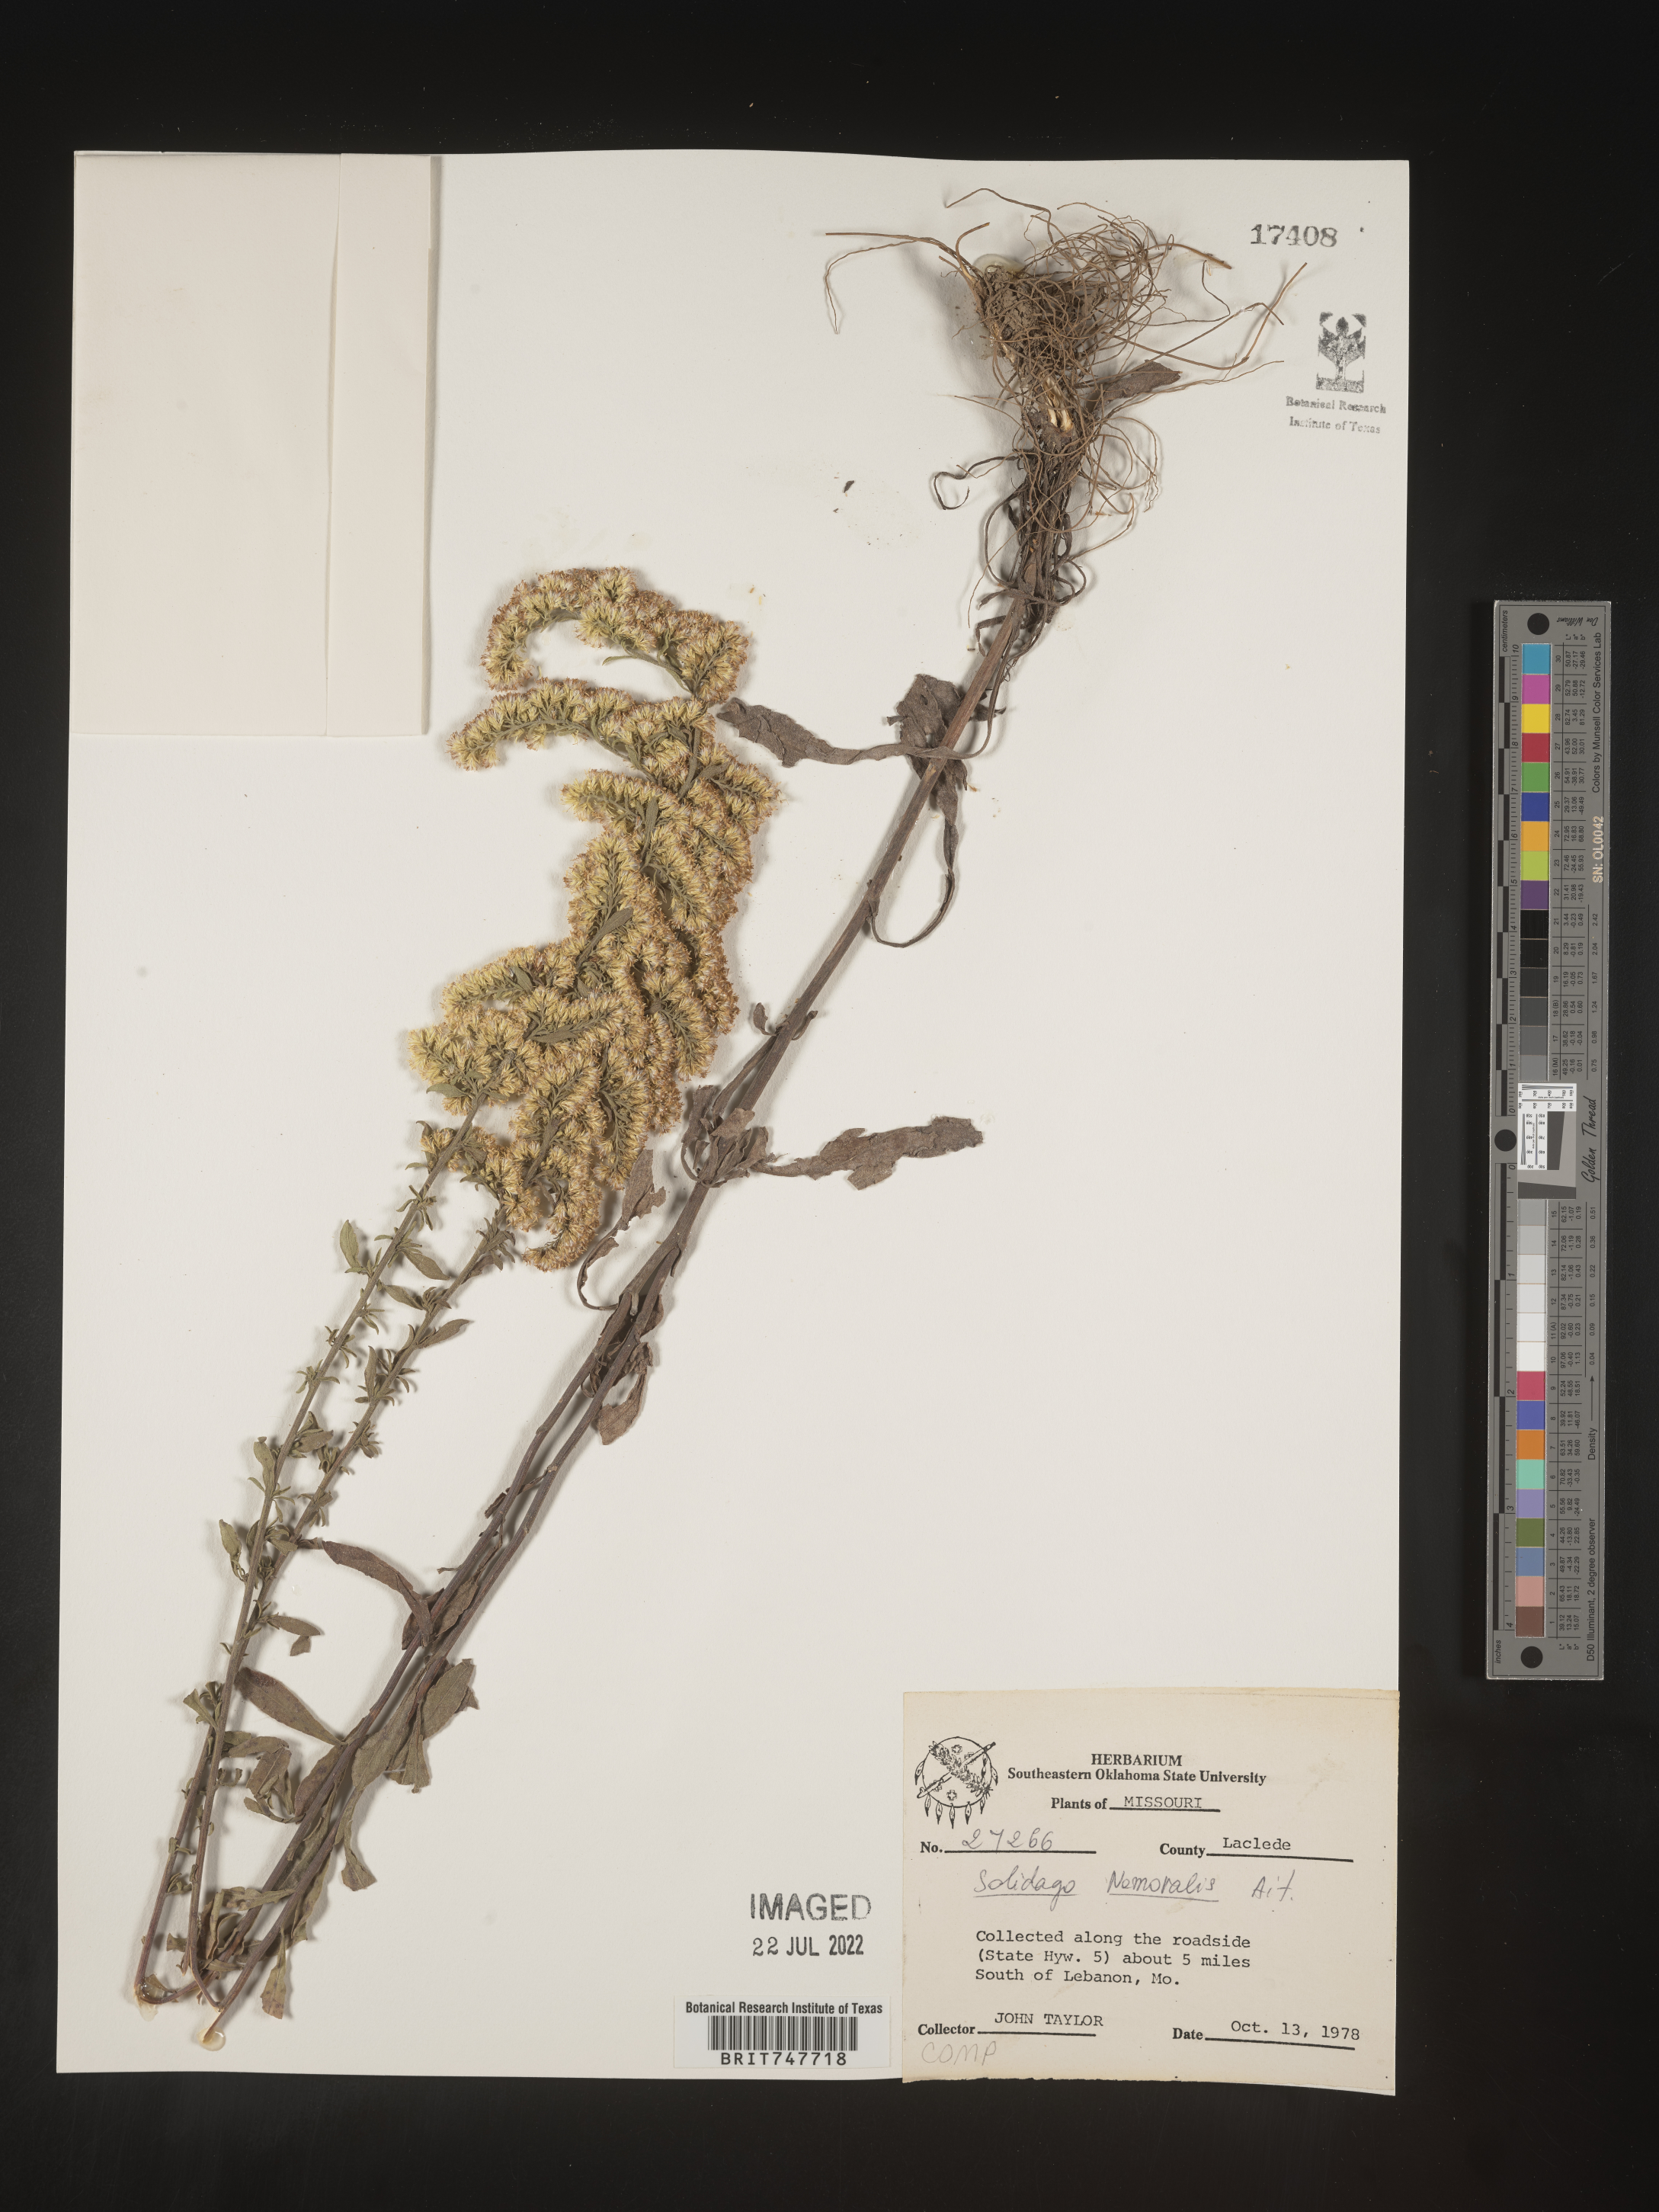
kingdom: Plantae
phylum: Tracheophyta
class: Magnoliopsida
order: Asterales
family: Asteraceae
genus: Solidago
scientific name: Solidago nemoralis
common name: Grey goldenrod
